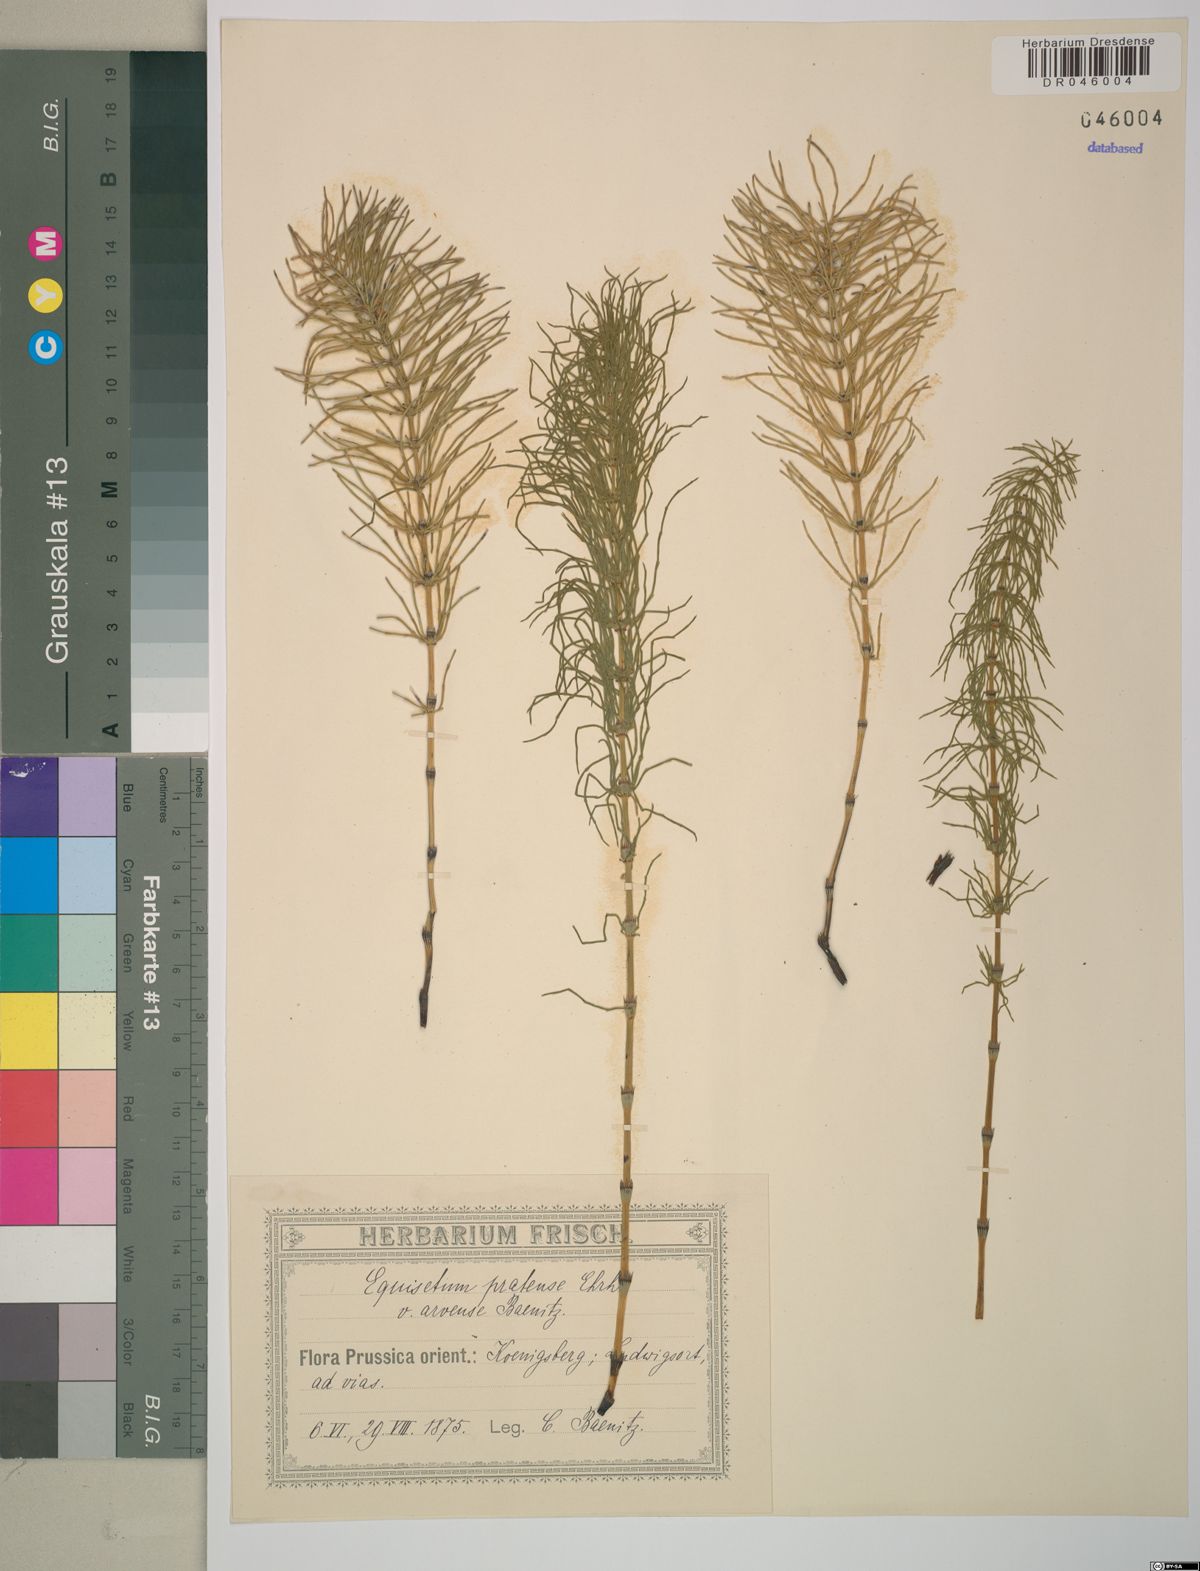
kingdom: Plantae
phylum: Tracheophyta
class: Polypodiopsida
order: Equisetales
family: Equisetaceae
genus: Equisetum
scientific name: Equisetum pratense
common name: Meadow horsetail
